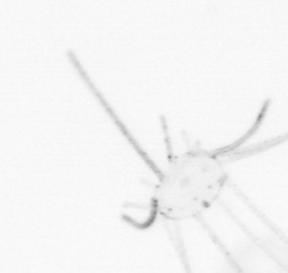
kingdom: Animalia
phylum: Cnidaria
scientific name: Cnidaria
